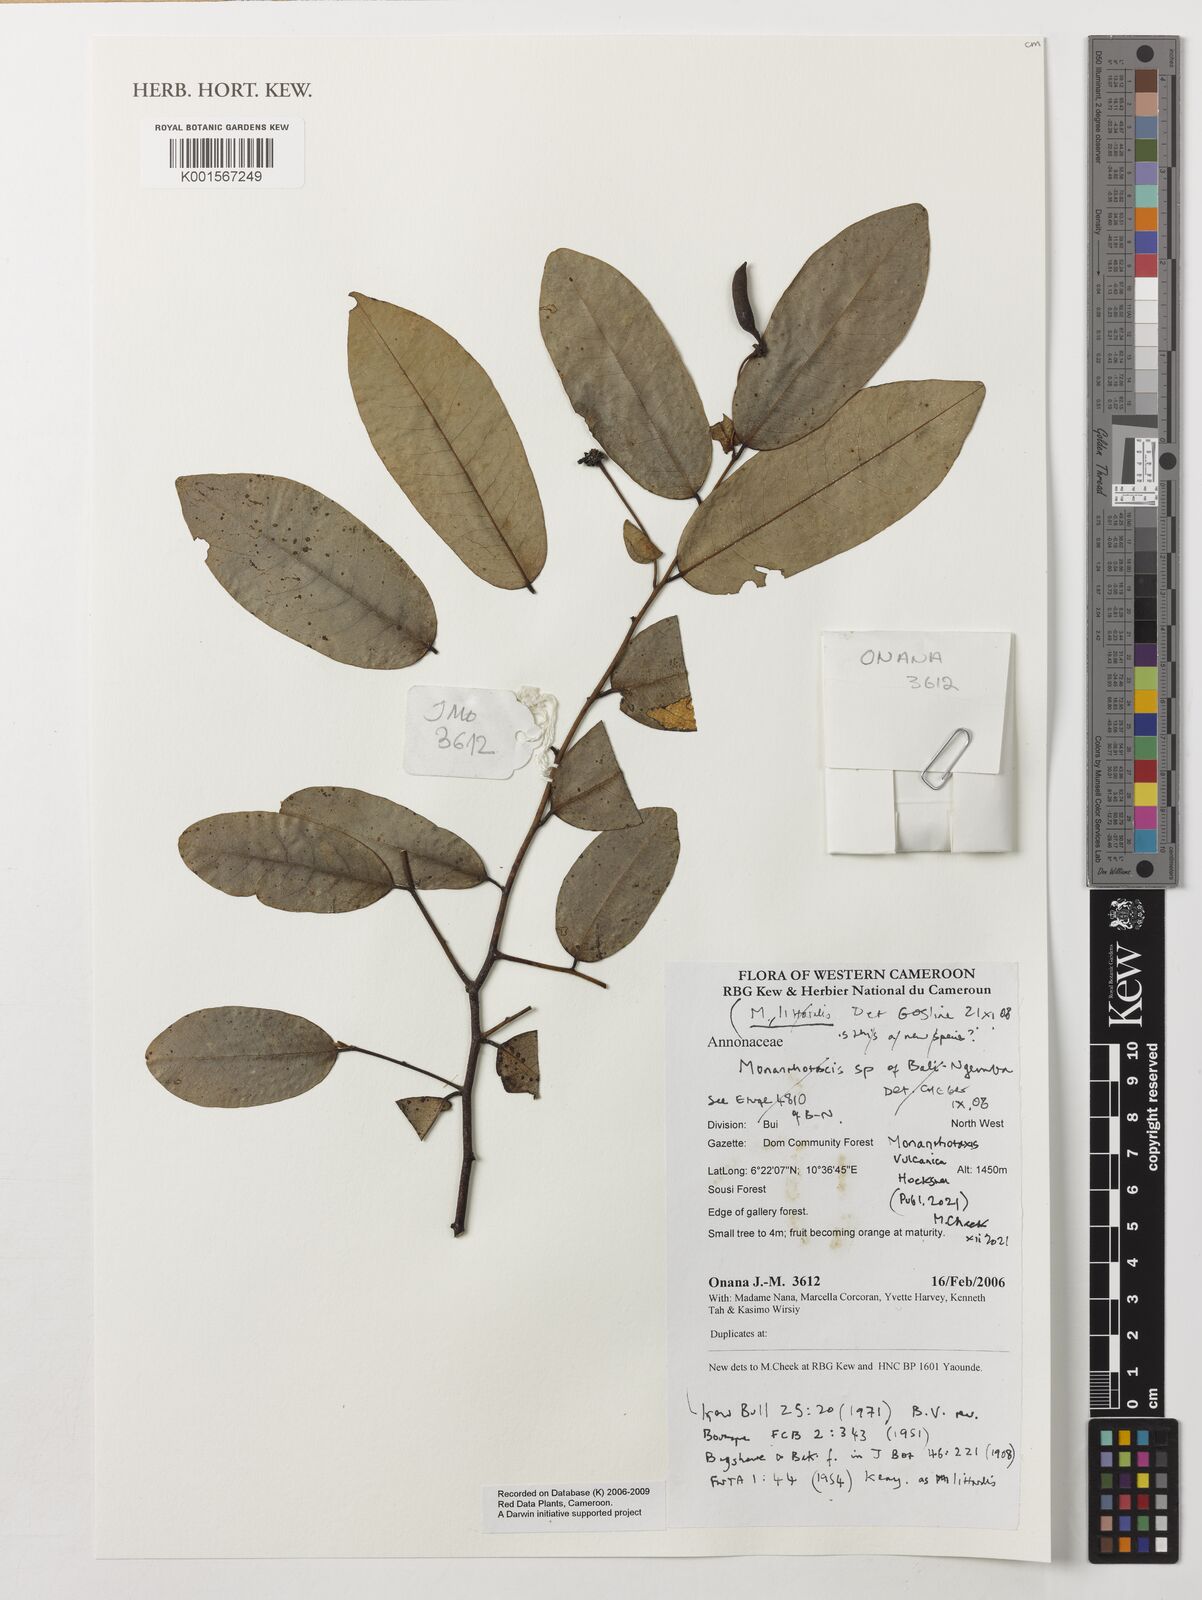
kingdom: Plantae
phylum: Tracheophyta
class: Magnoliopsida
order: Magnoliales
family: Annonaceae
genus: Monanthotaxis
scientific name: Monanthotaxis littoralis
